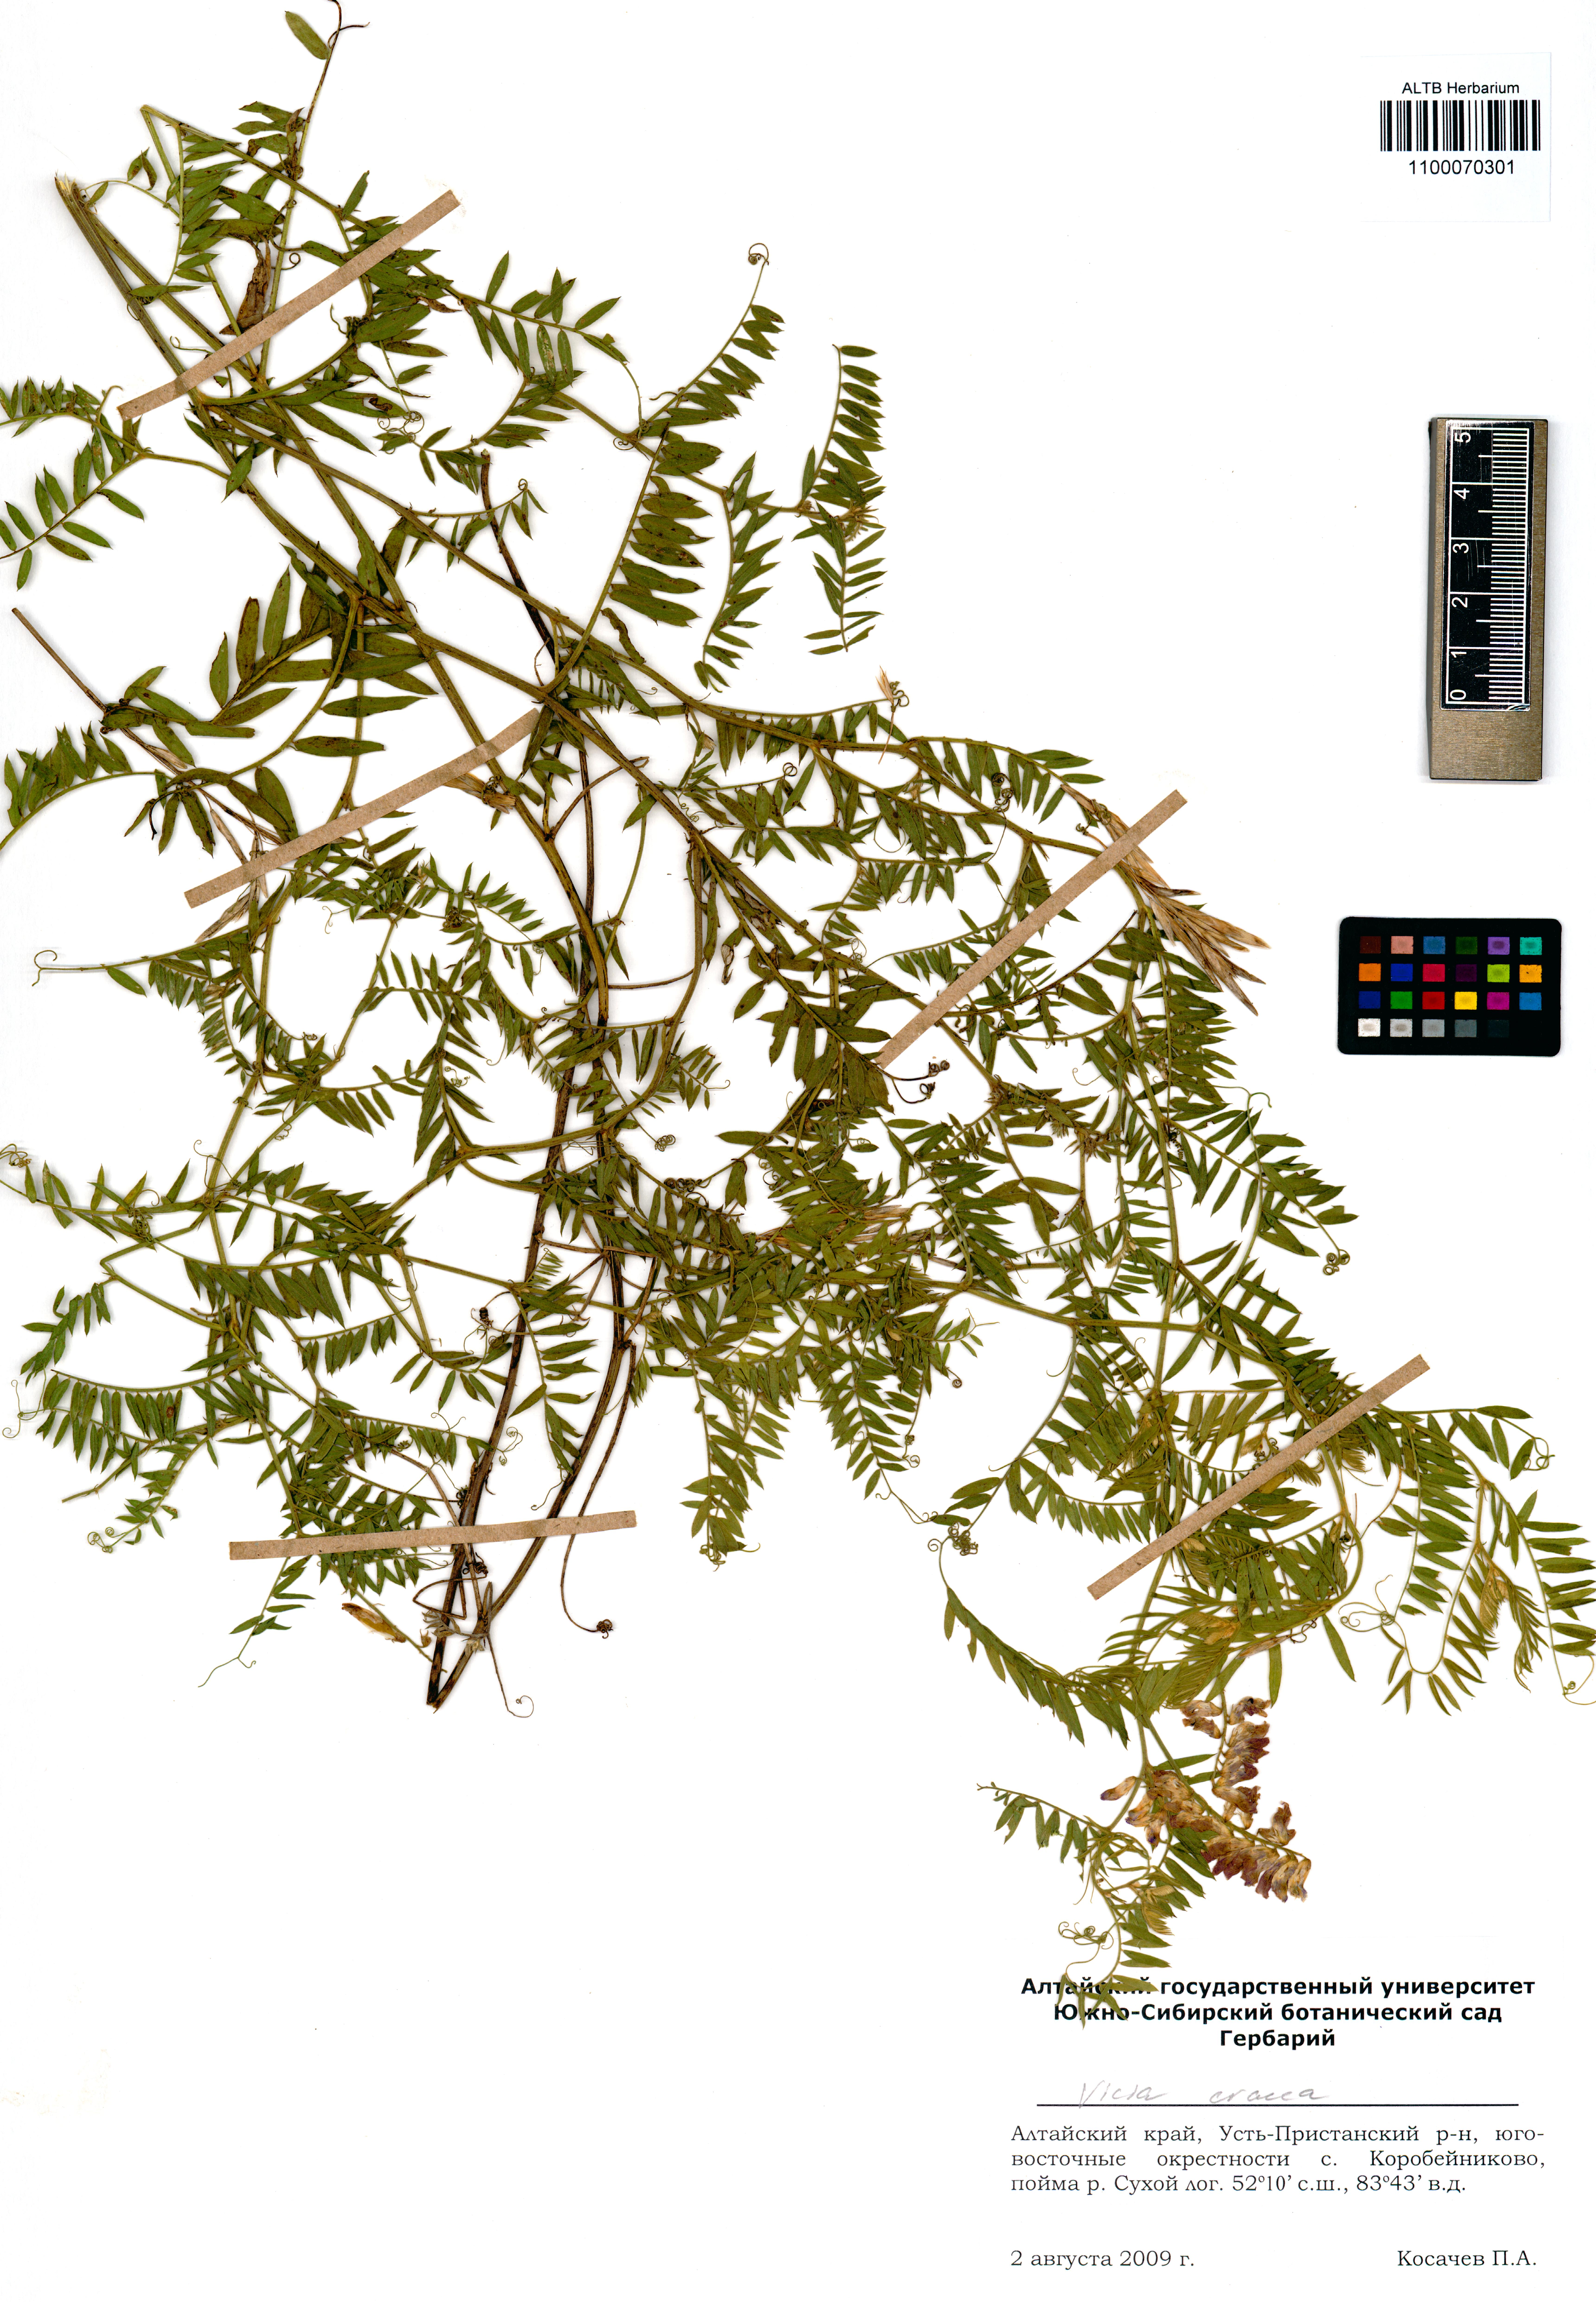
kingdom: Plantae
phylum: Tracheophyta
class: Magnoliopsida
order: Fabales
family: Fabaceae
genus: Vicia
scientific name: Vicia cracca
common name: Bird vetch
